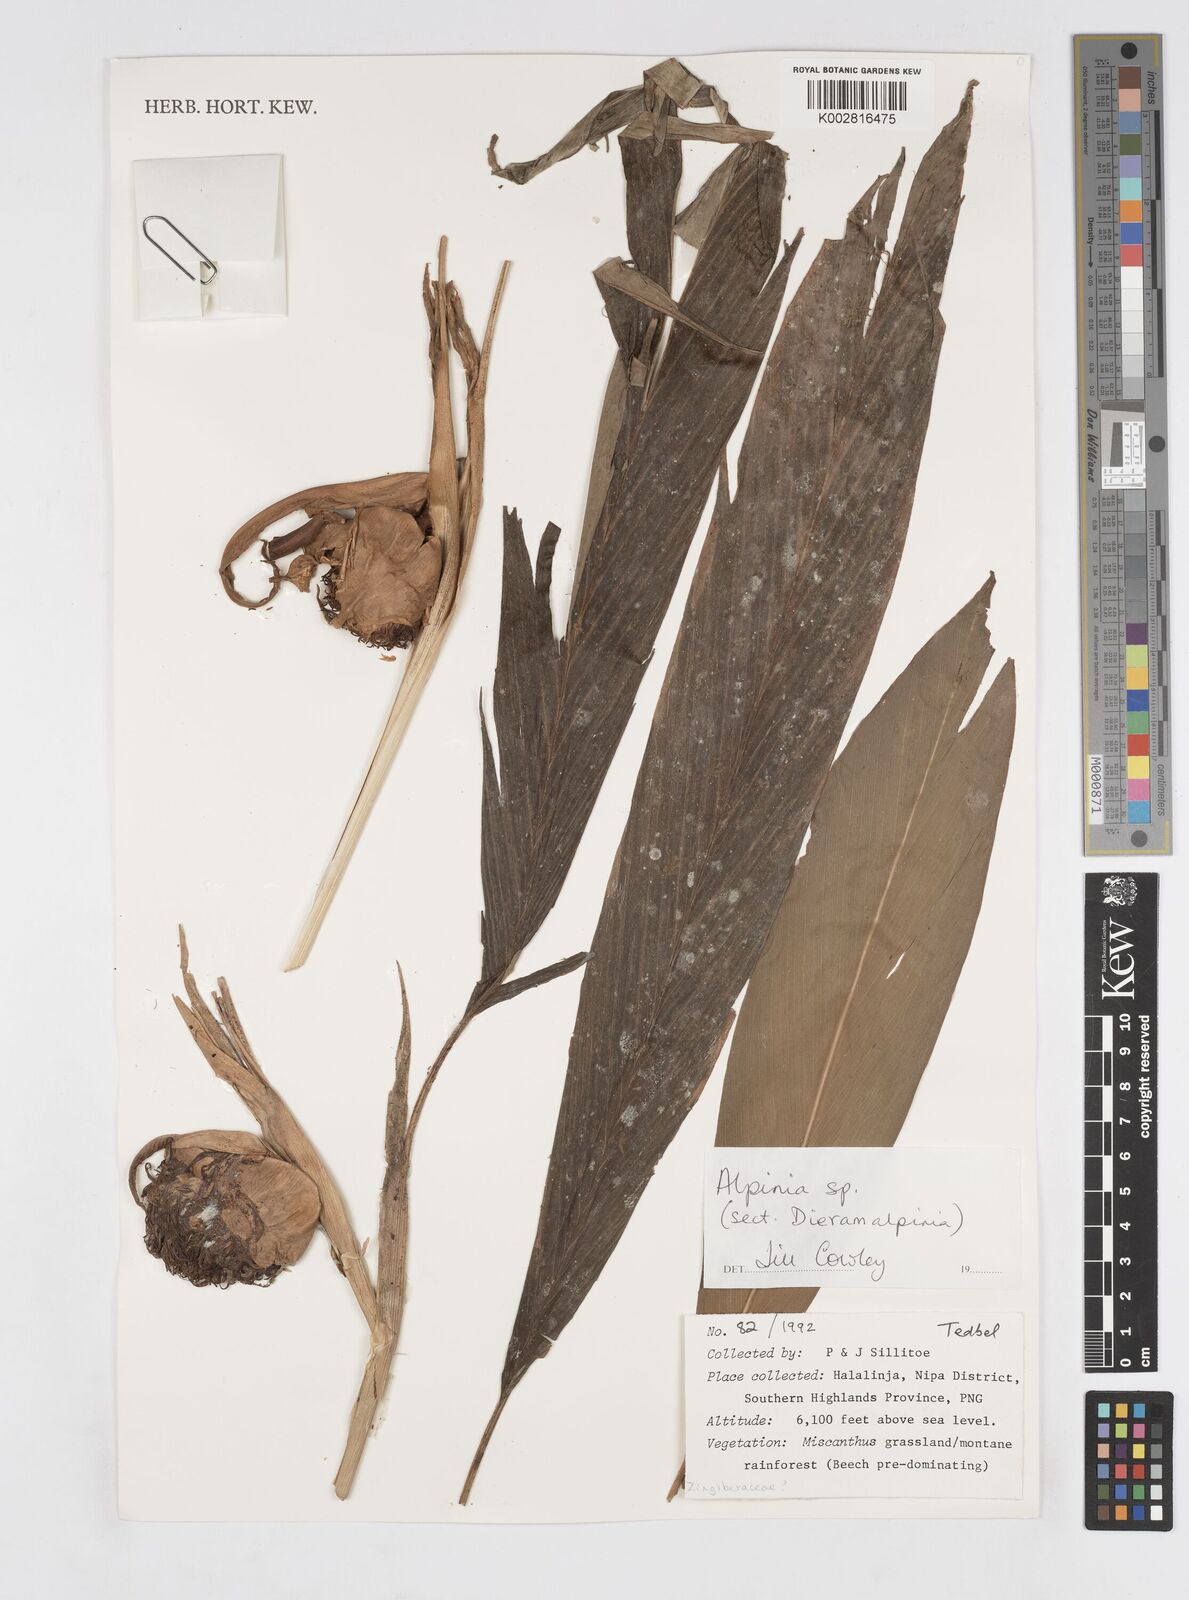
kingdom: Plantae
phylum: Tracheophyta
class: Liliopsida
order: Zingiberales
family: Zingiberaceae
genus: Alpinia
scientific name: Alpinia
